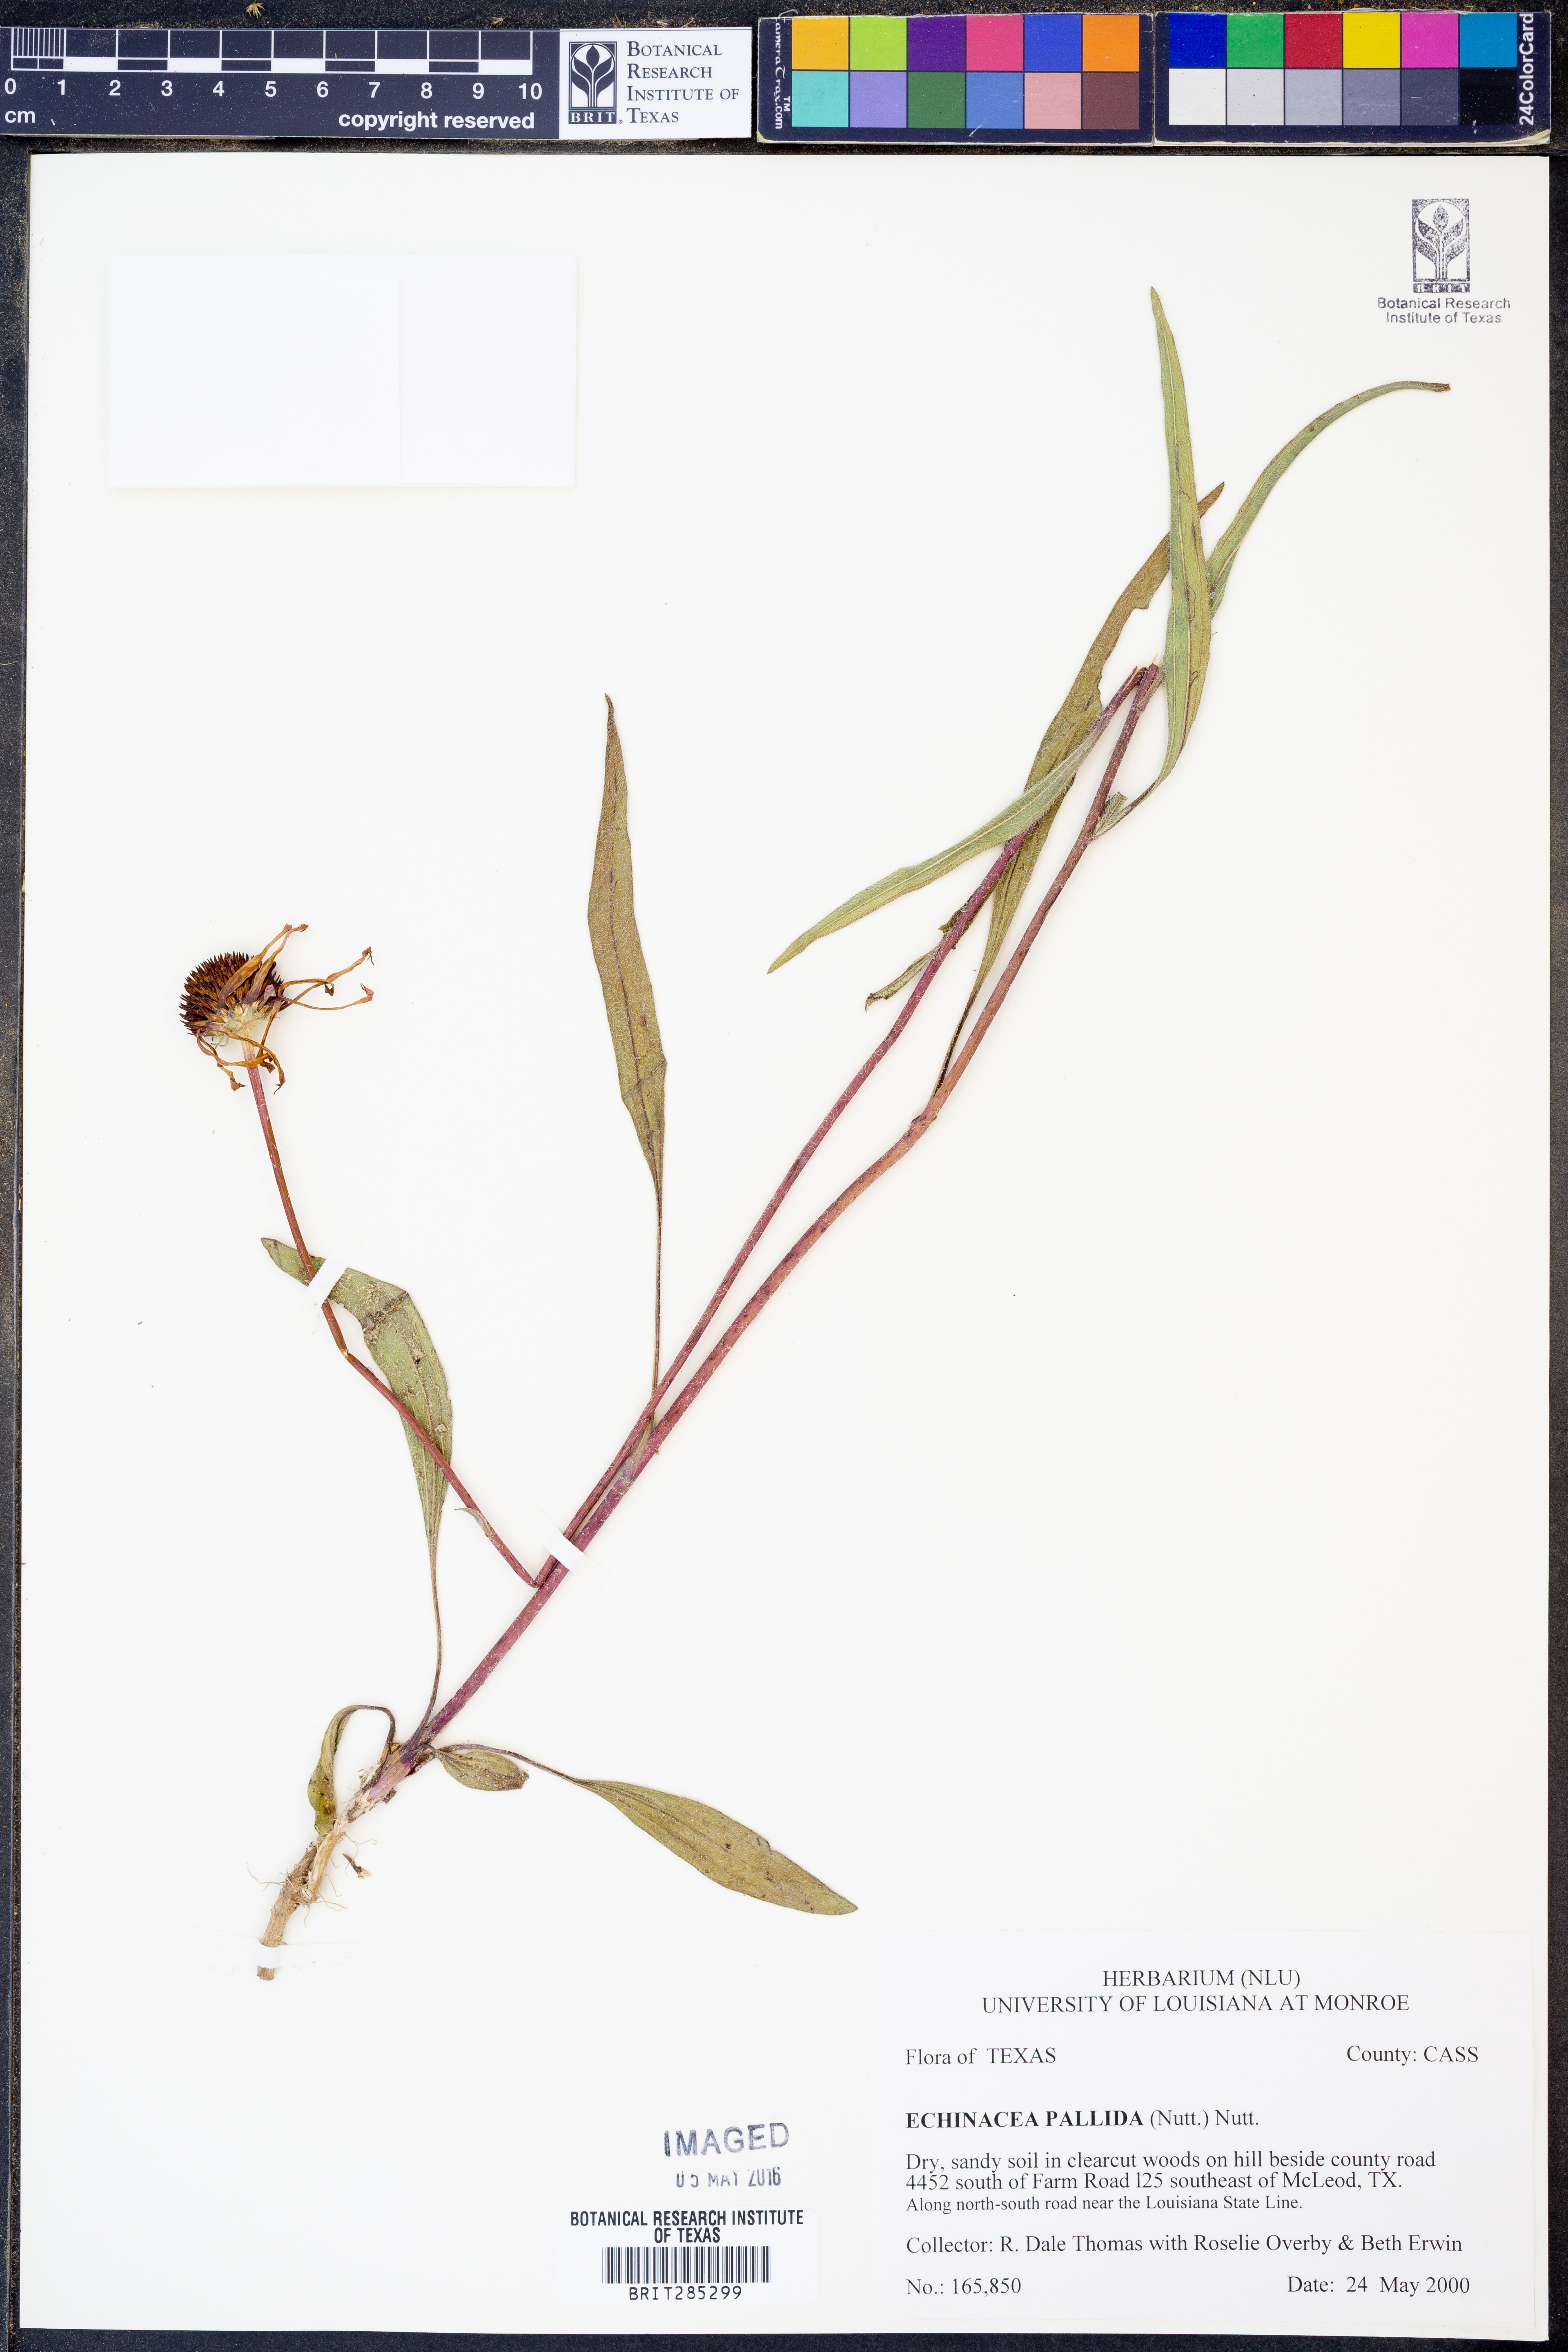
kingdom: Plantae
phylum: Tracheophyta
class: Magnoliopsida
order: Asterales
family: Asteraceae
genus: Echinacea
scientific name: Echinacea pallida
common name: Pale echinacea
